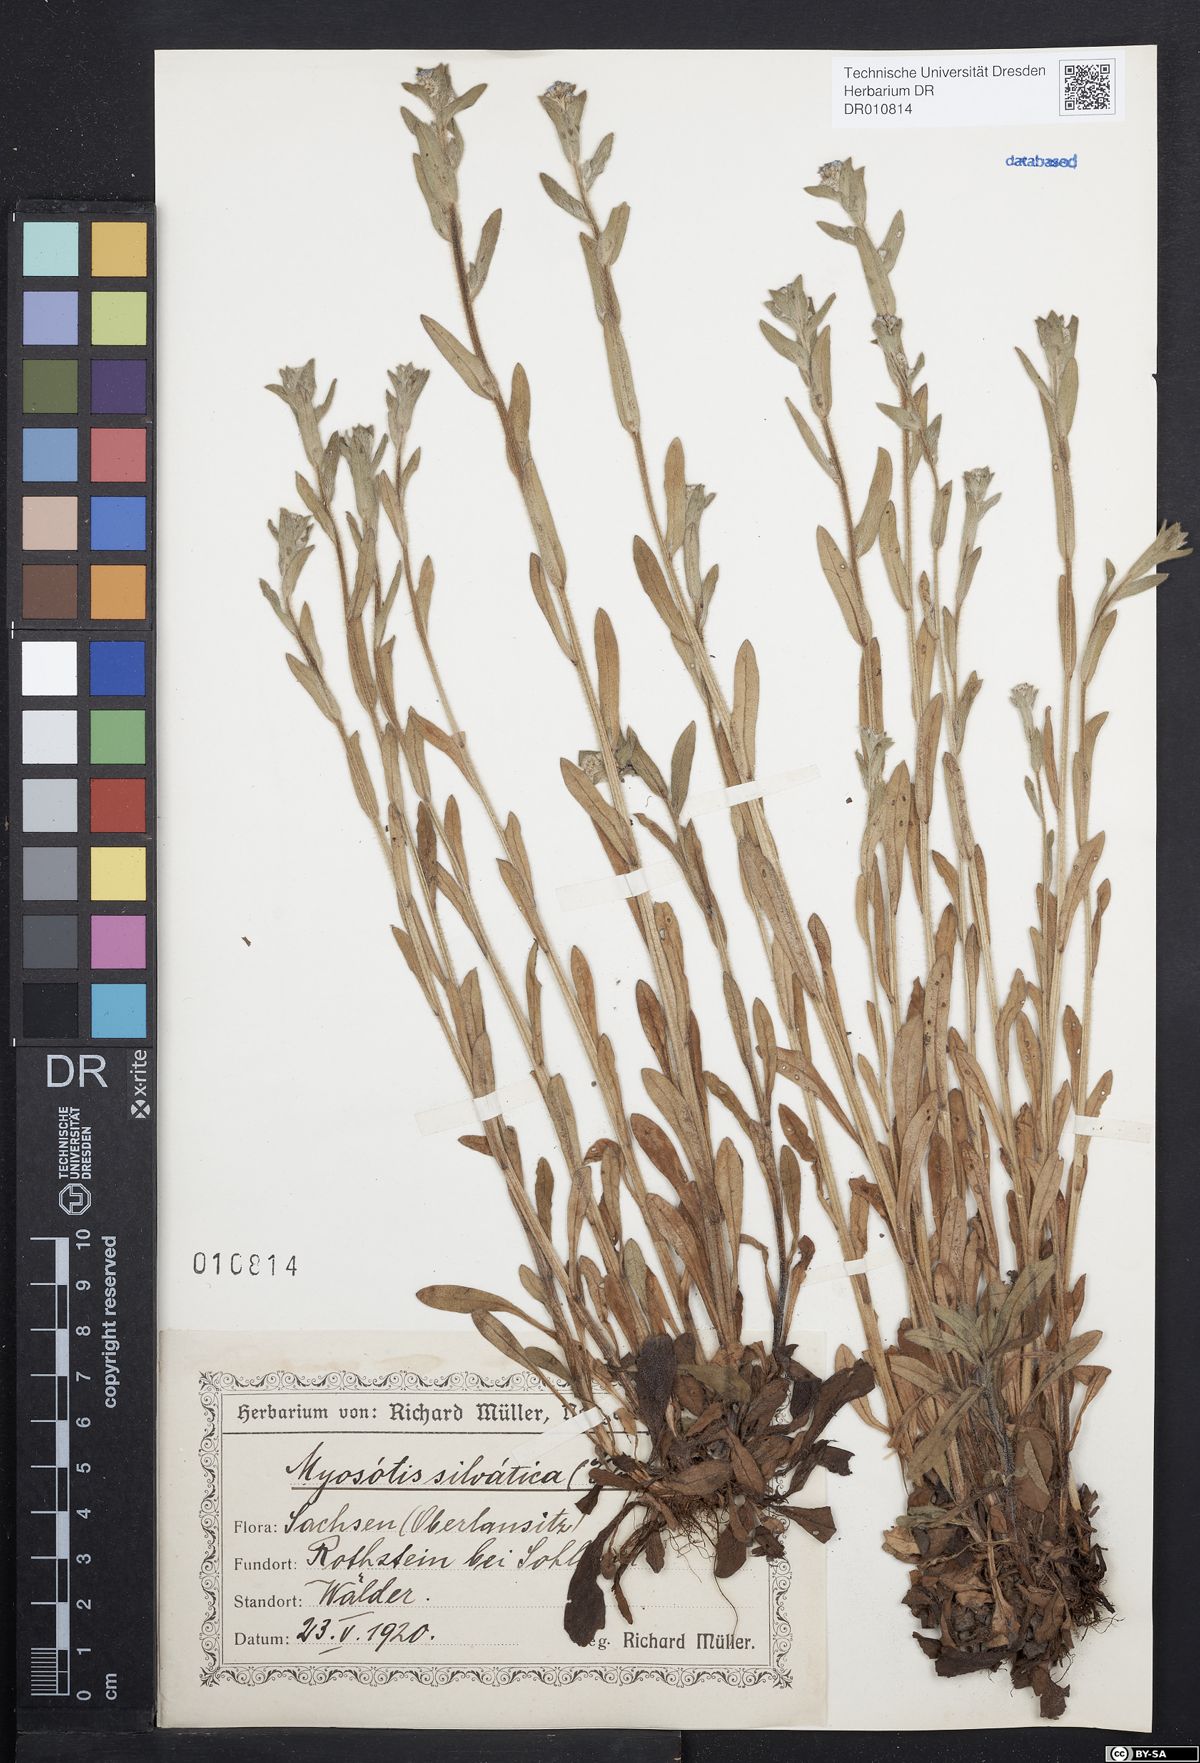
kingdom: Plantae
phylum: Tracheophyta
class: Magnoliopsida
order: Boraginales
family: Boraginaceae
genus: Myosotis
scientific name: Myosotis sylvatica
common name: Wood forget-me-not
